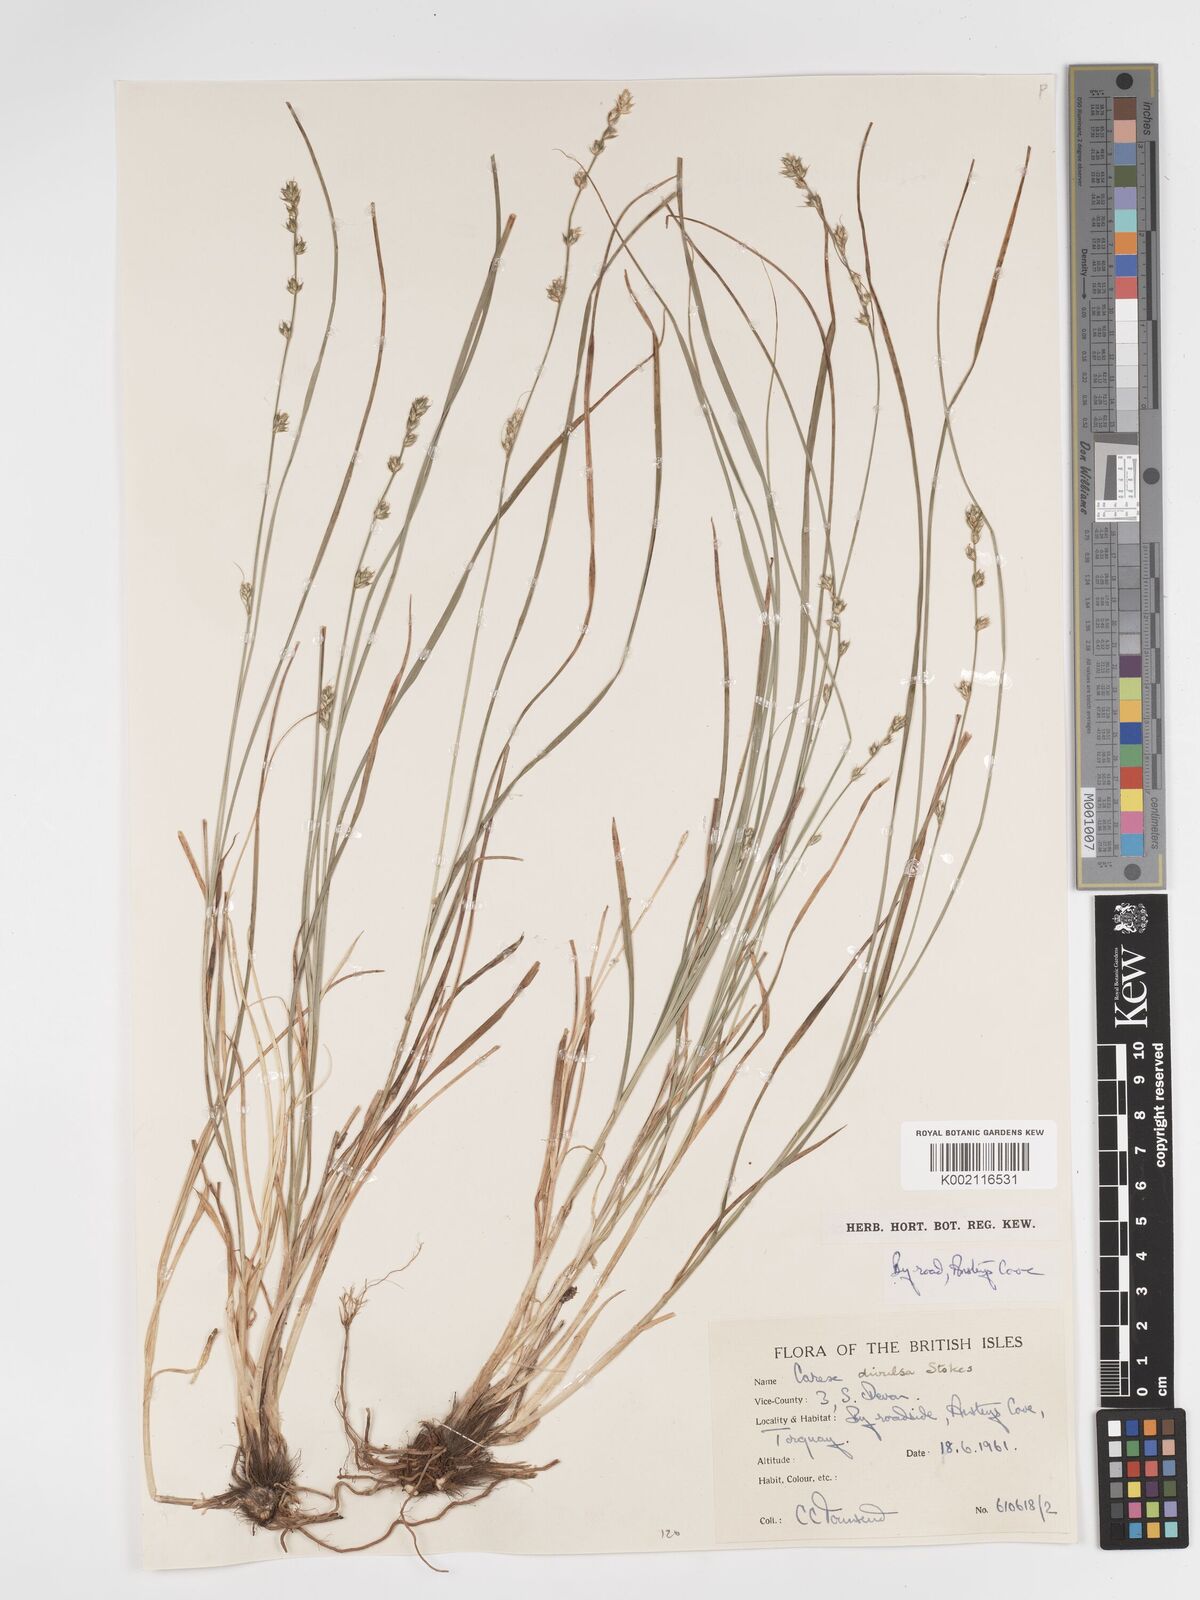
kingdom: Plantae
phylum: Tracheophyta
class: Liliopsida
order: Poales
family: Cyperaceae
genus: Carex
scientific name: Carex divulsa
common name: Grassland sedge
